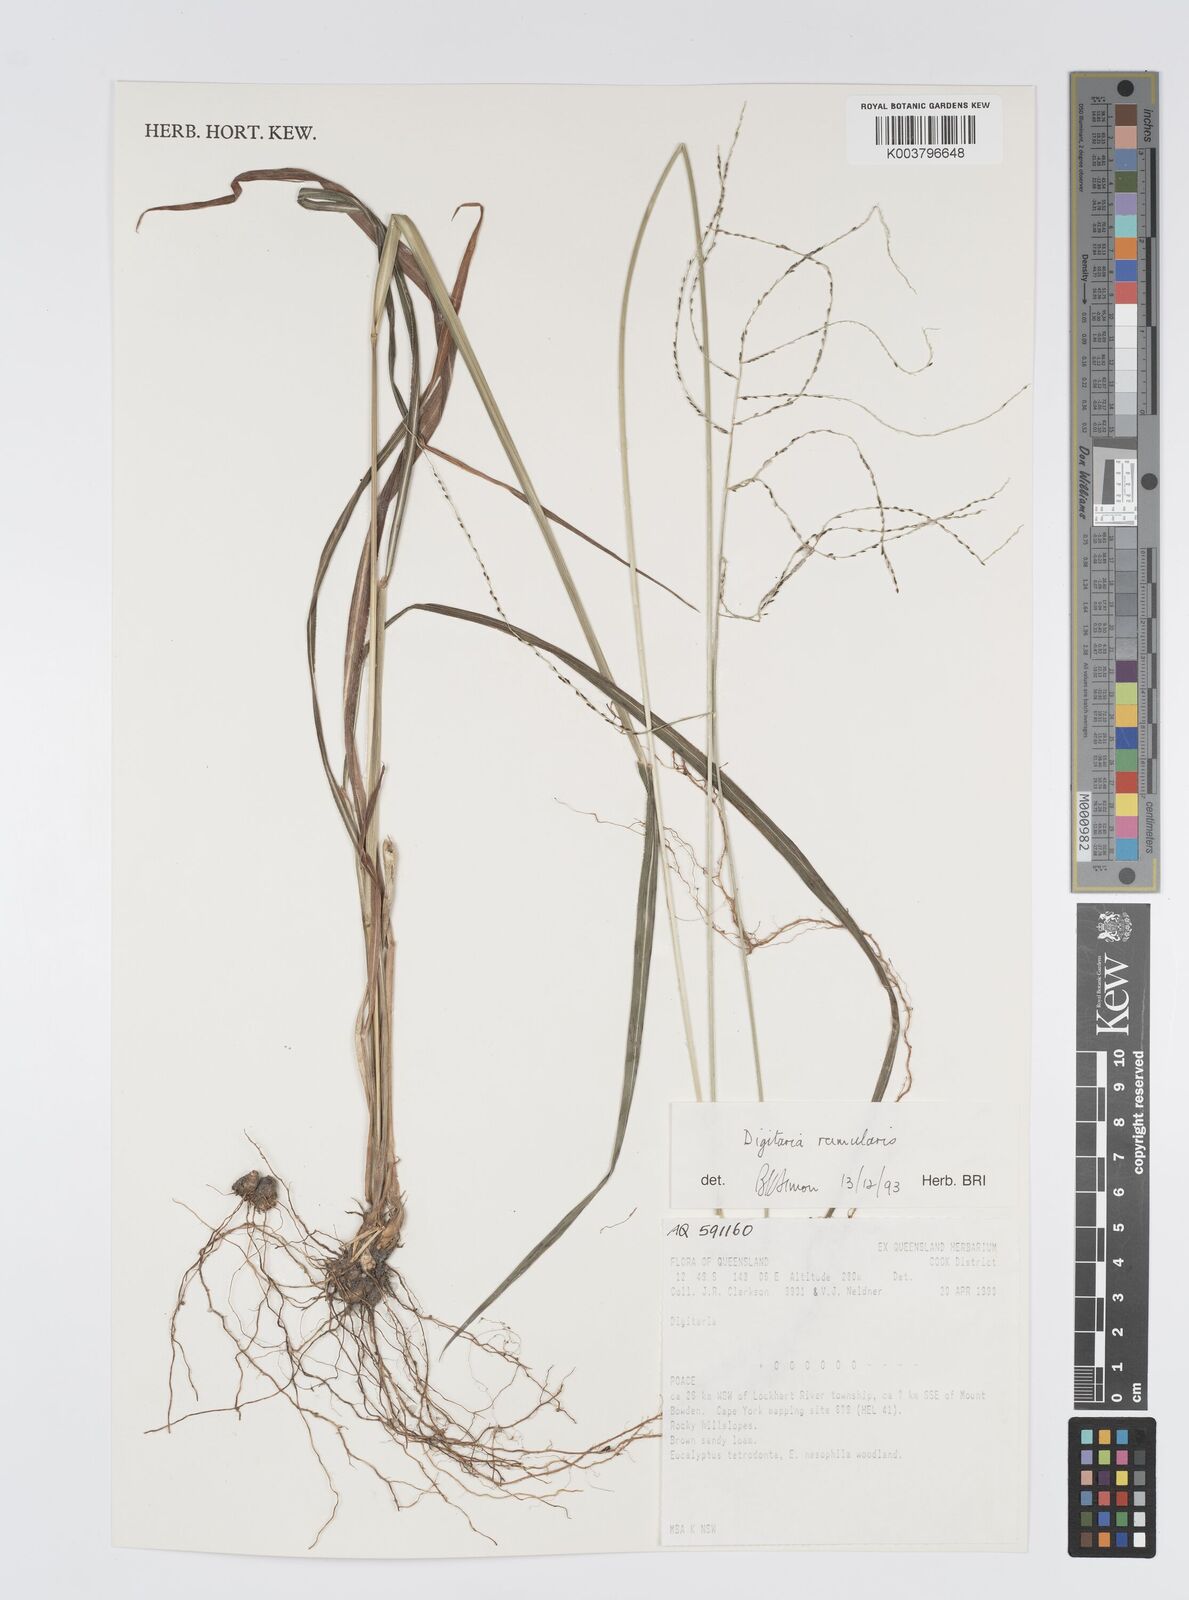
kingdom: Plantae
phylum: Tracheophyta
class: Liliopsida
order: Poales
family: Poaceae
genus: Digitaria
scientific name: Digitaria ramularis
